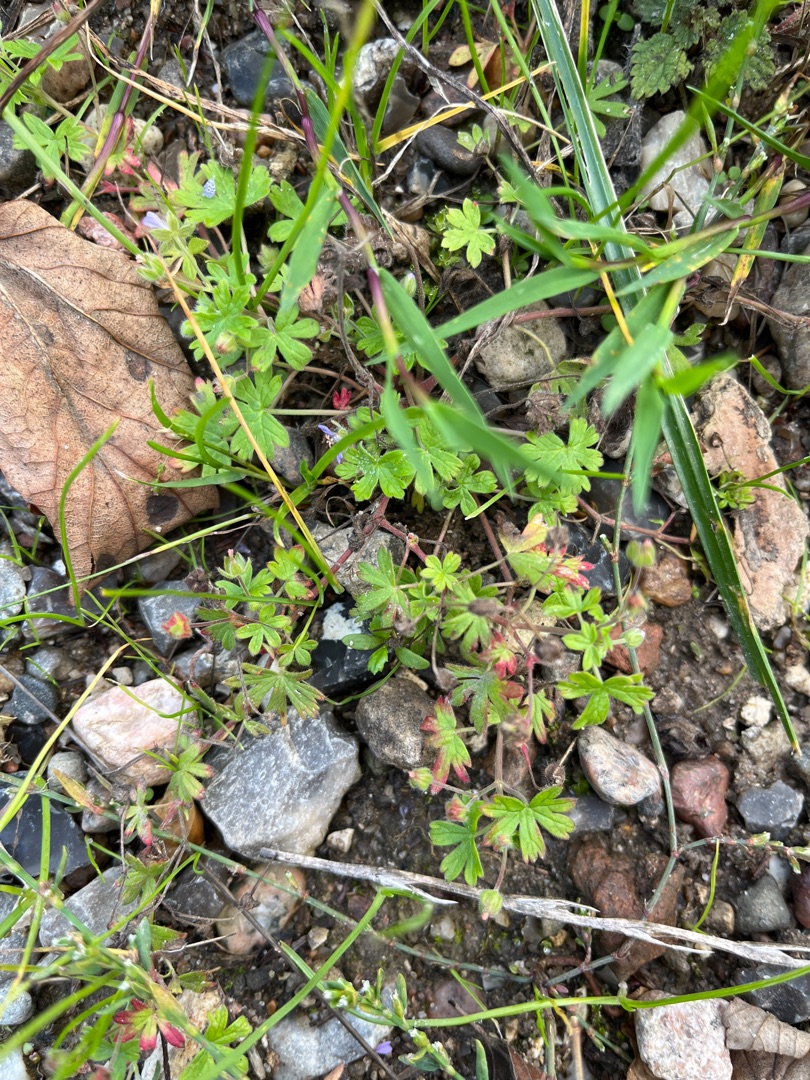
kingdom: Plantae
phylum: Tracheophyta
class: Magnoliopsida
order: Geraniales
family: Geraniaceae
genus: Geranium
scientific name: Geranium pusillum
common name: Liden storkenæb
